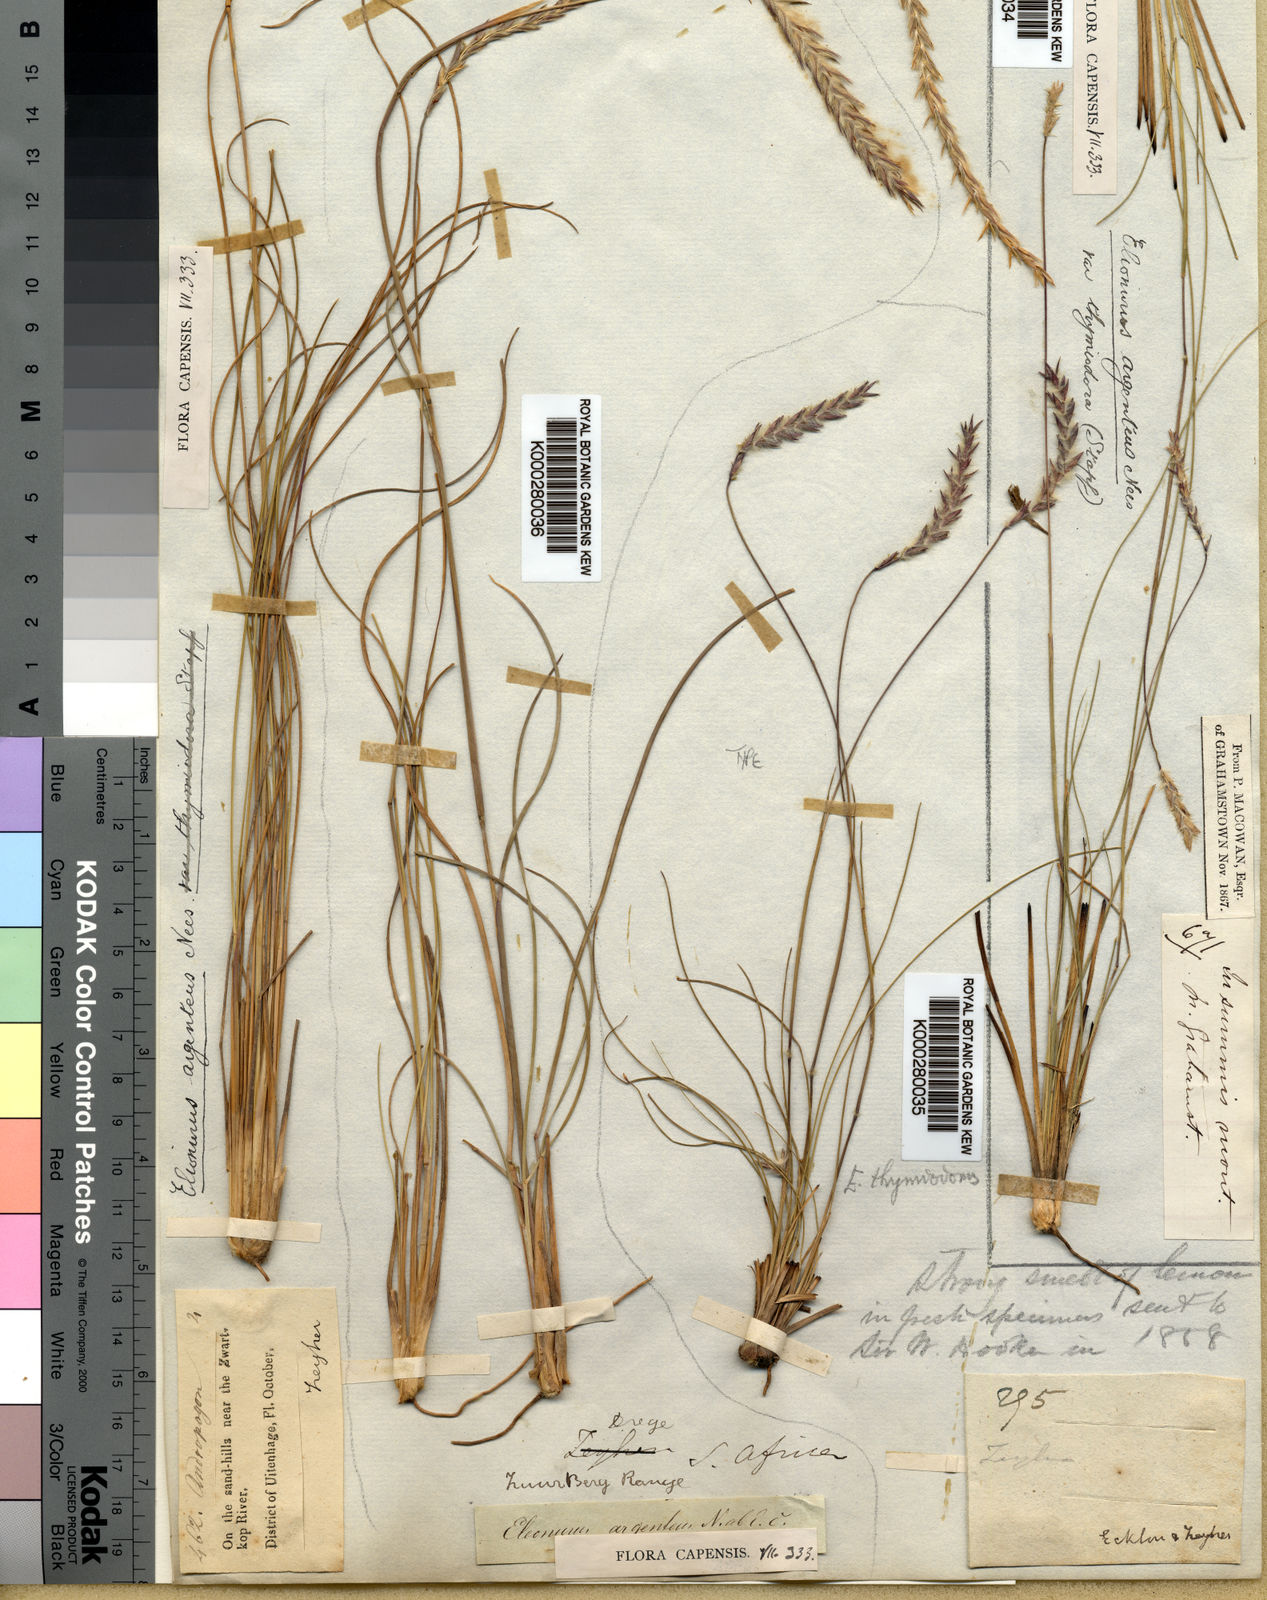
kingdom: Plantae
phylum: Tracheophyta
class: Liliopsida
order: Poales
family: Poaceae
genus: Elionurus
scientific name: Elionurus muticus
